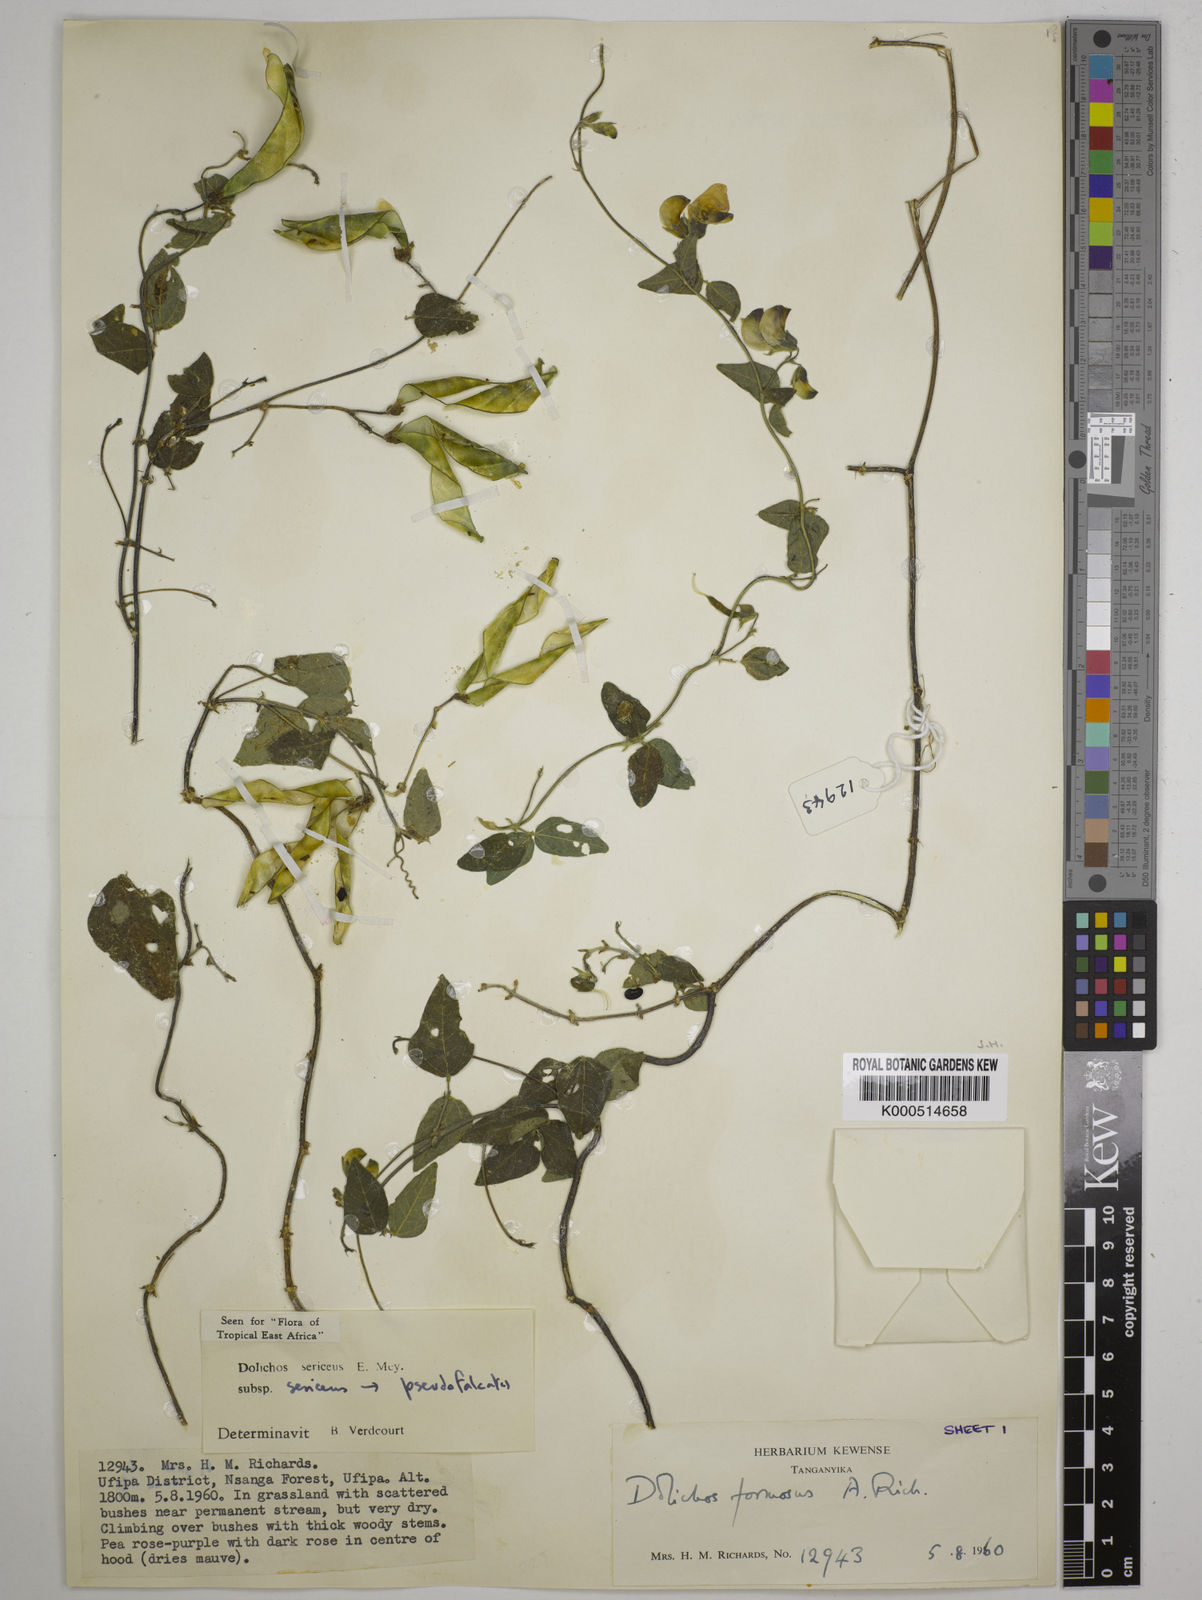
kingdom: Plantae
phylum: Tracheophyta
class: Magnoliopsida
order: Fabales
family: Fabaceae
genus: Dolichos
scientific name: Dolichos sericeus
